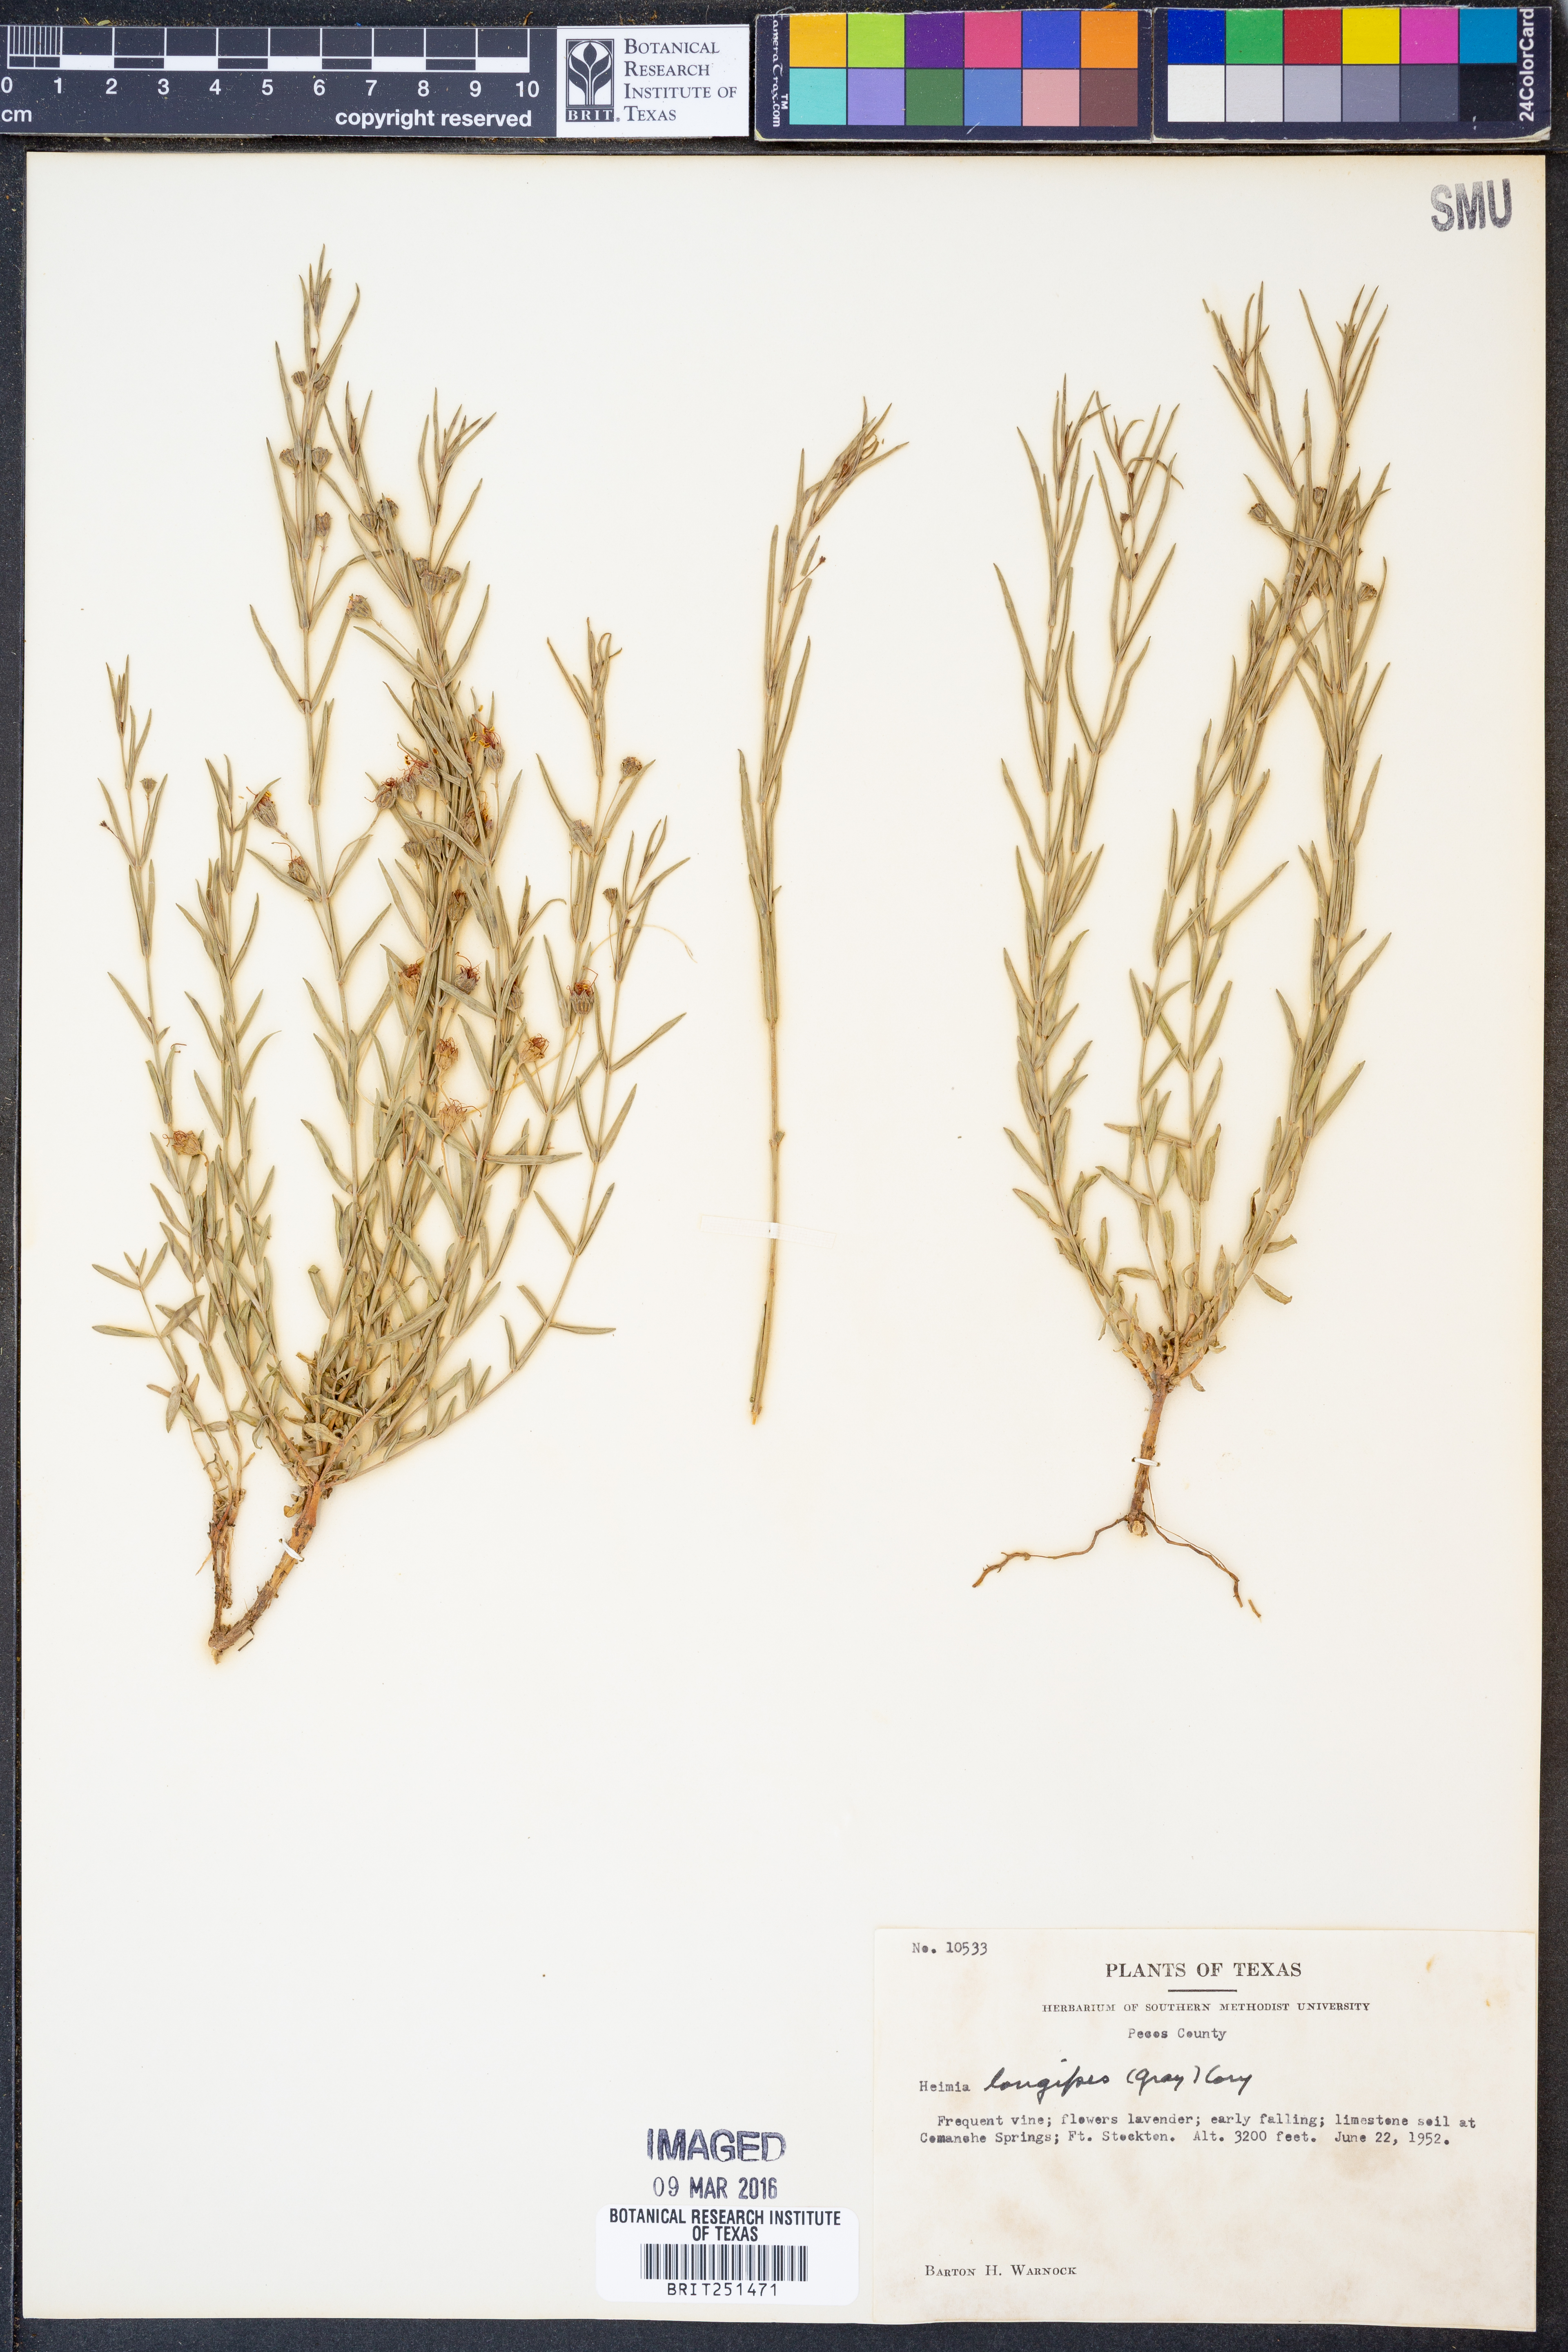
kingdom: Plantae
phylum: Tracheophyta
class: Magnoliopsida
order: Myrtales
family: Lythraceae
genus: Ammannia
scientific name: Ammannia grayi
